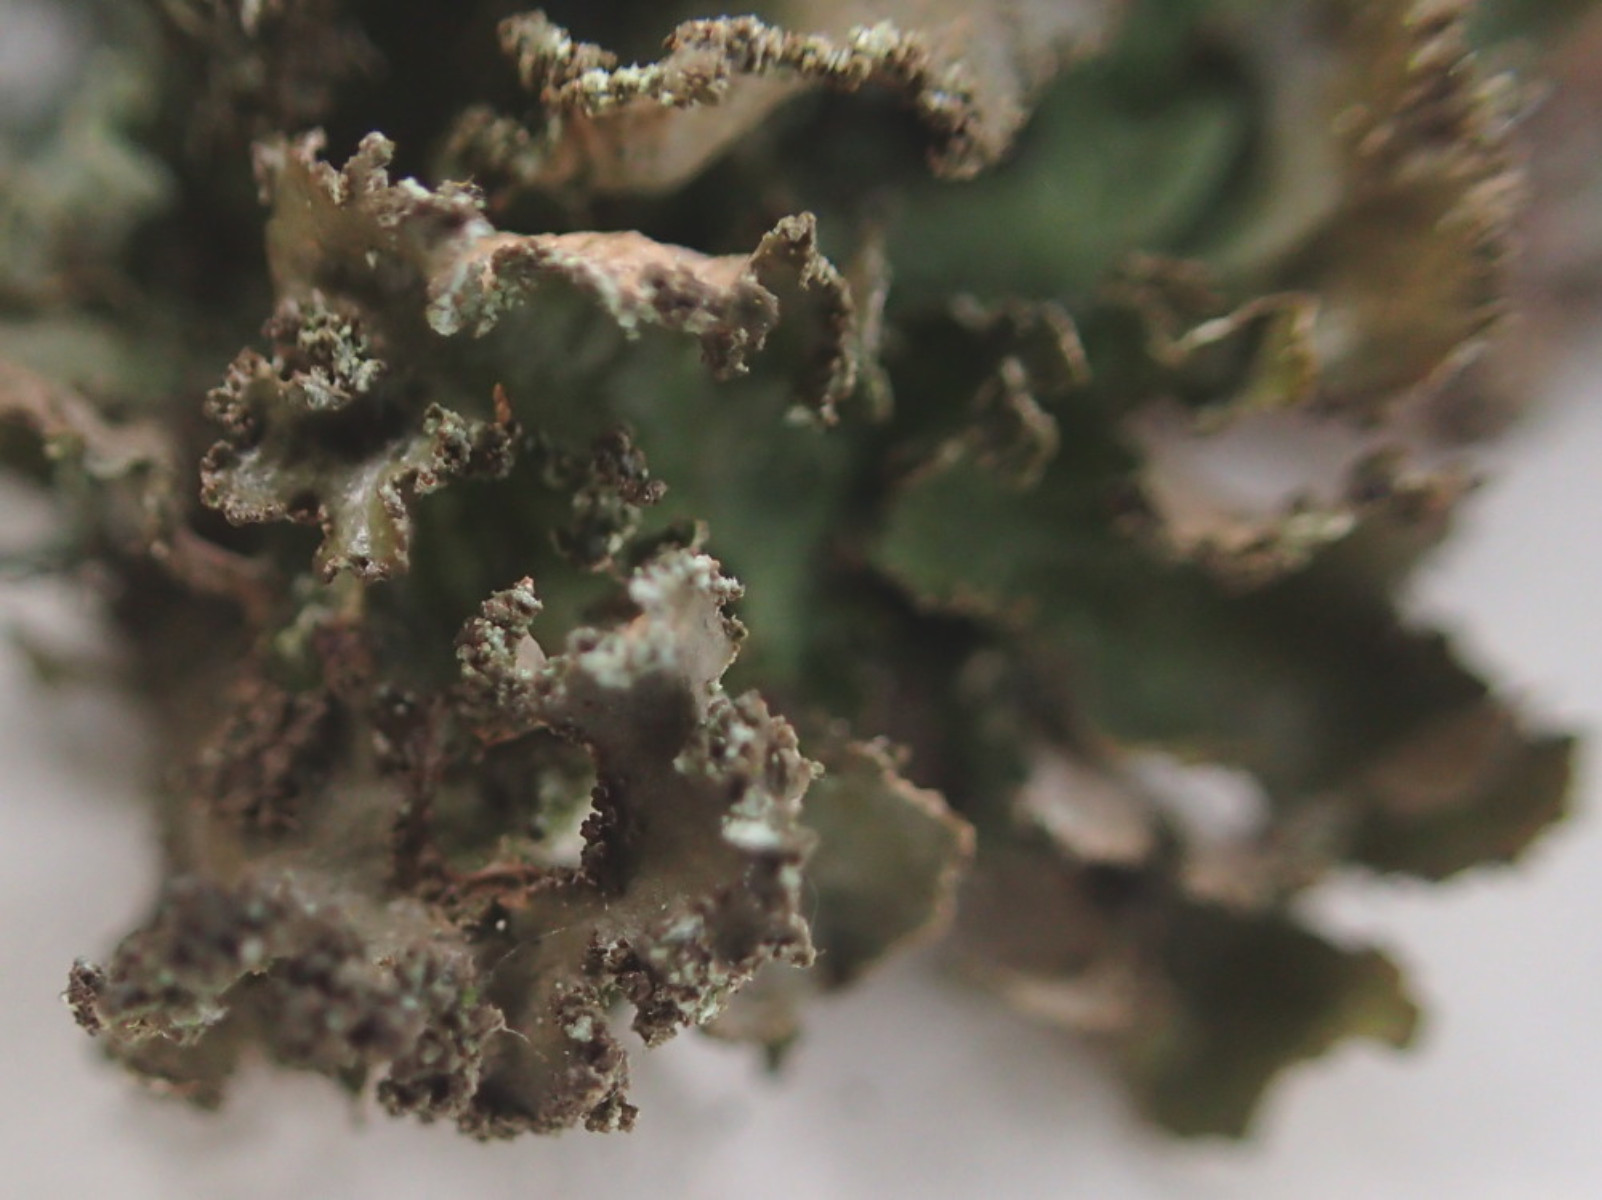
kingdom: Fungi
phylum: Ascomycota
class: Lecanoromycetes
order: Lecanorales
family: Parmeliaceae
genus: Nephromopsis
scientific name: Nephromopsis chlorophylla
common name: olivenbrun kruslav
